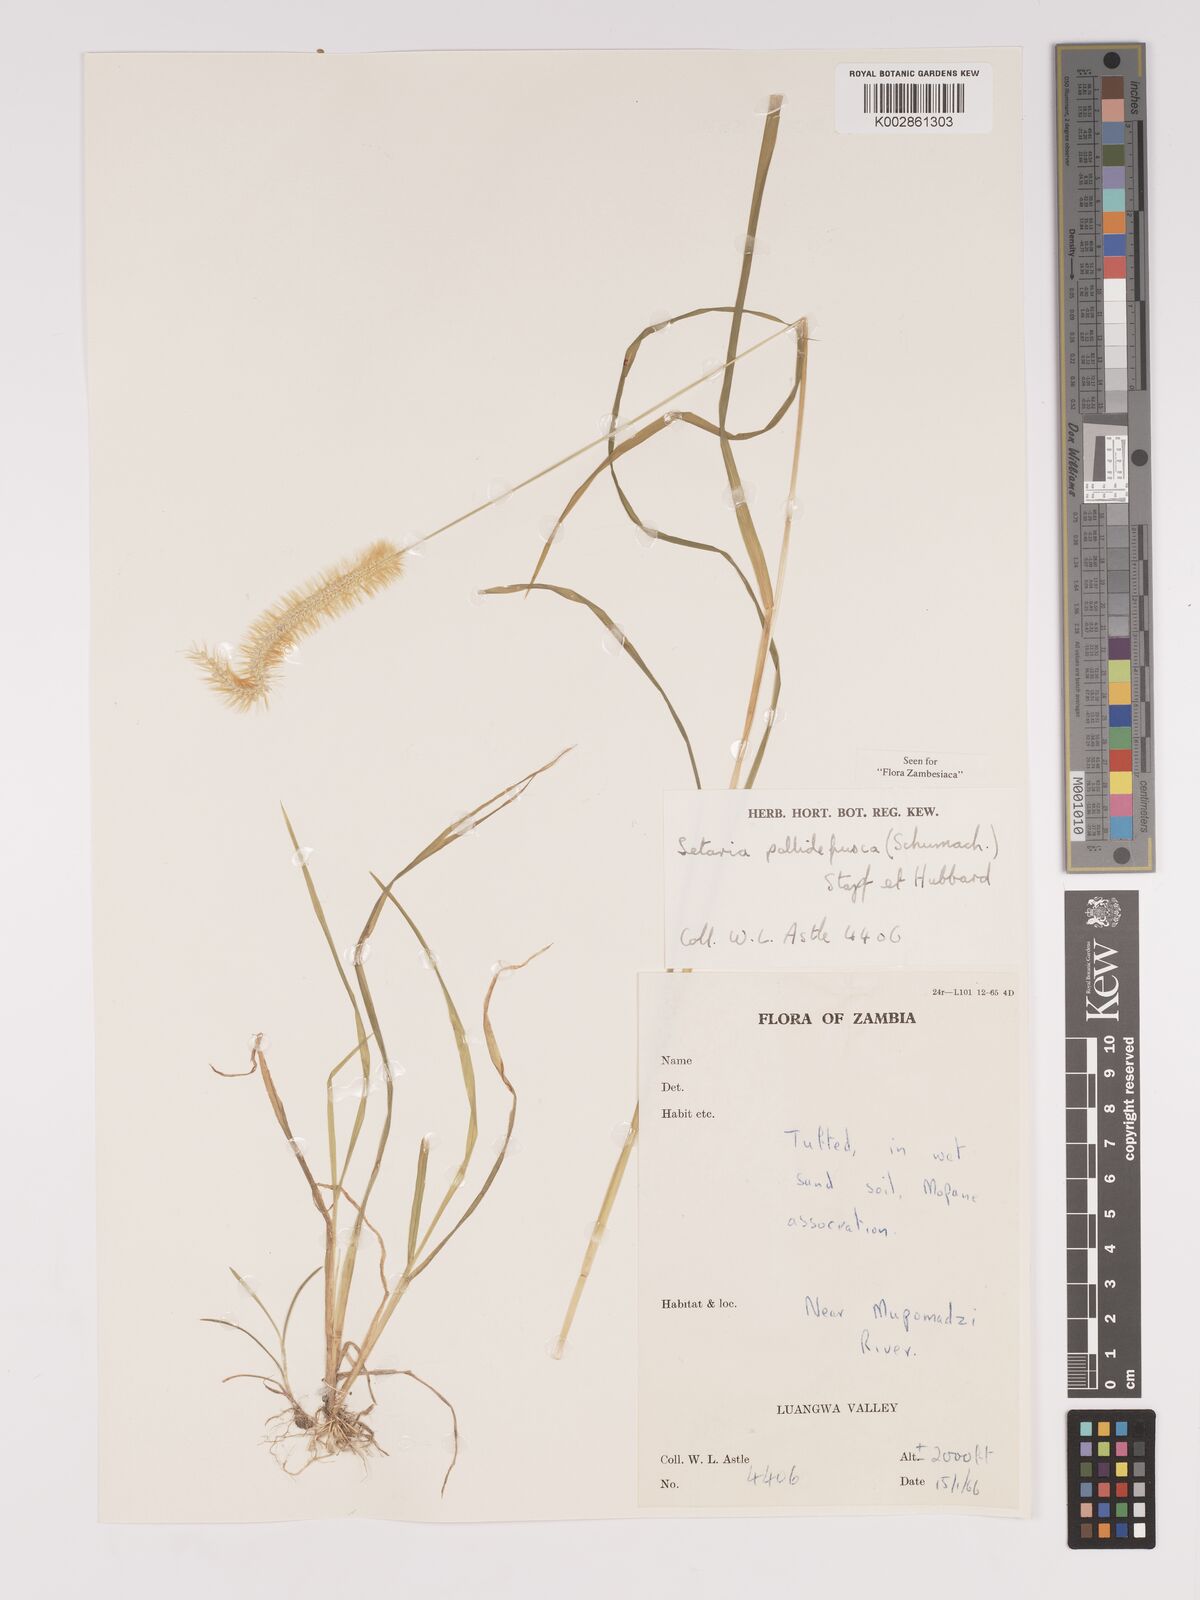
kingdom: Plantae
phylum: Tracheophyta
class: Liliopsida
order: Poales
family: Poaceae
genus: Setaria
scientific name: Setaria pumila
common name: Yellow bristle-grass
